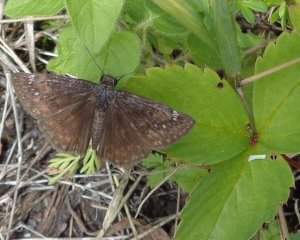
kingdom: Animalia
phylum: Arthropoda
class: Insecta
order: Lepidoptera
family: Hesperiidae
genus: Gesta
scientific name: Gesta
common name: Wild Indigo Duskywing
